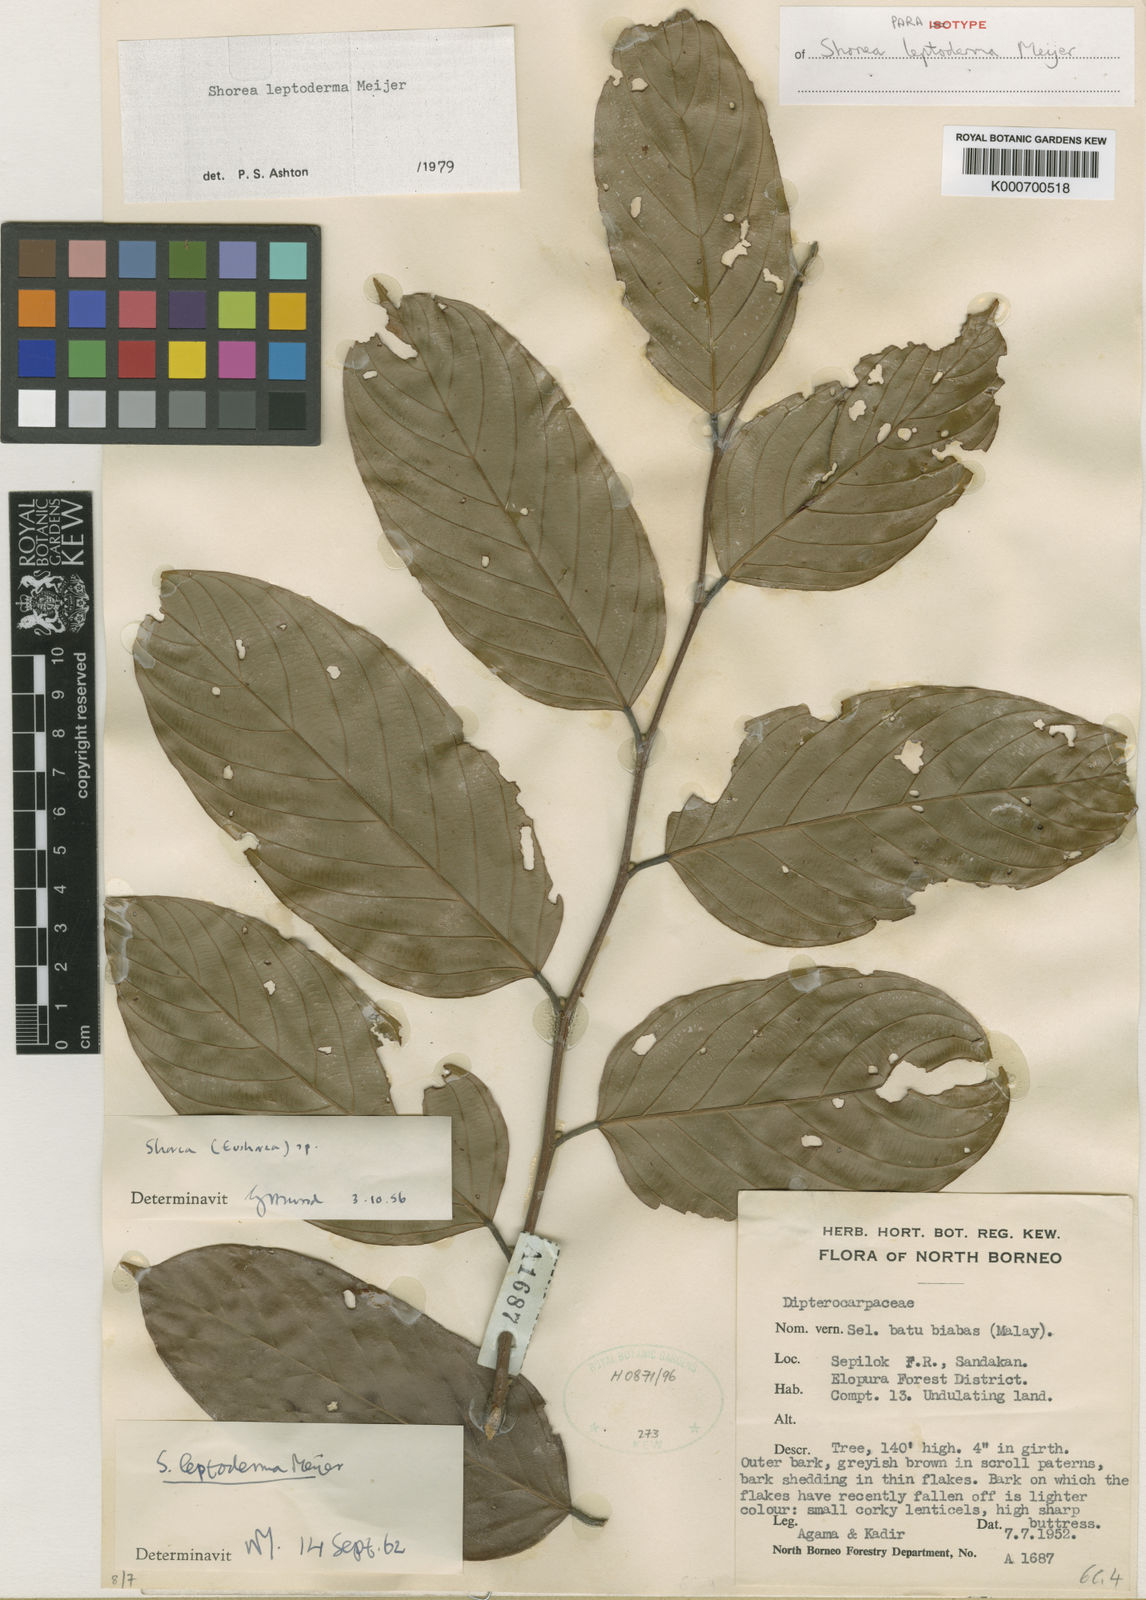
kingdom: Plantae
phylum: Tracheophyta
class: Magnoliopsida
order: Malvales
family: Dipterocarpaceae
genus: Shorea
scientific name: Shorea leptoderma
